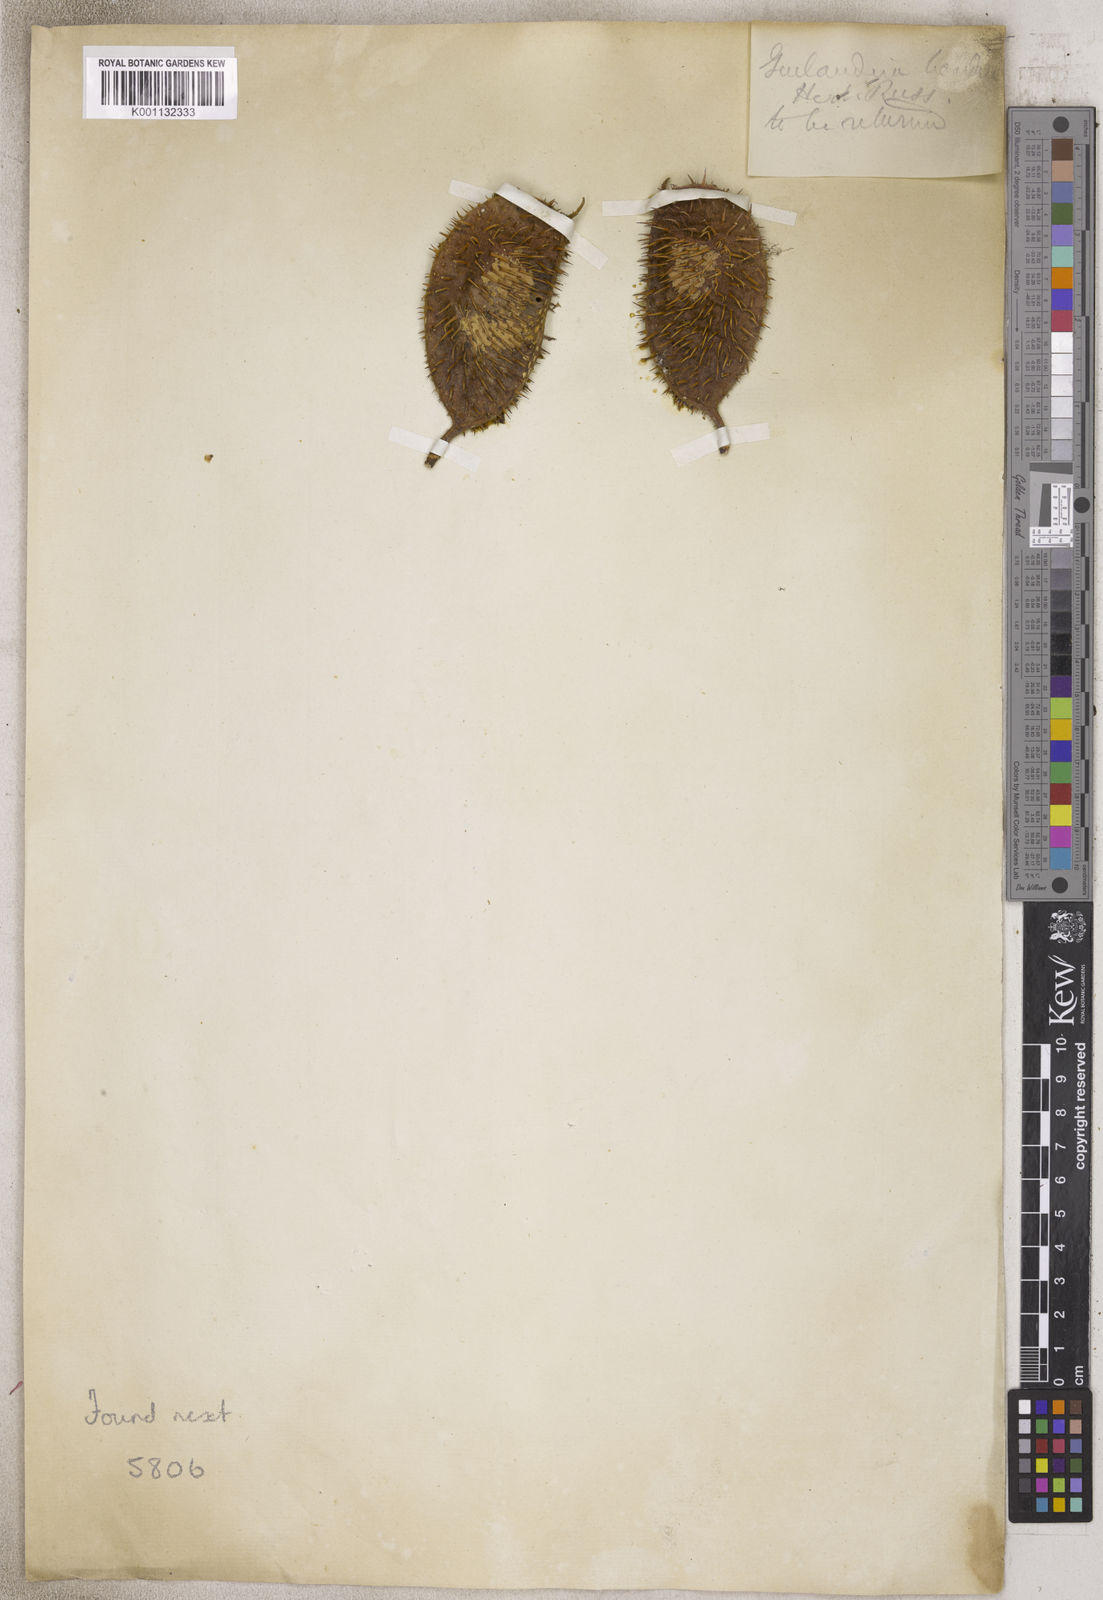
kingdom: Plantae
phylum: Tracheophyta
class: Magnoliopsida
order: Fabales
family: Fabaceae
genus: Caesalpinia
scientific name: Caesalpinia
